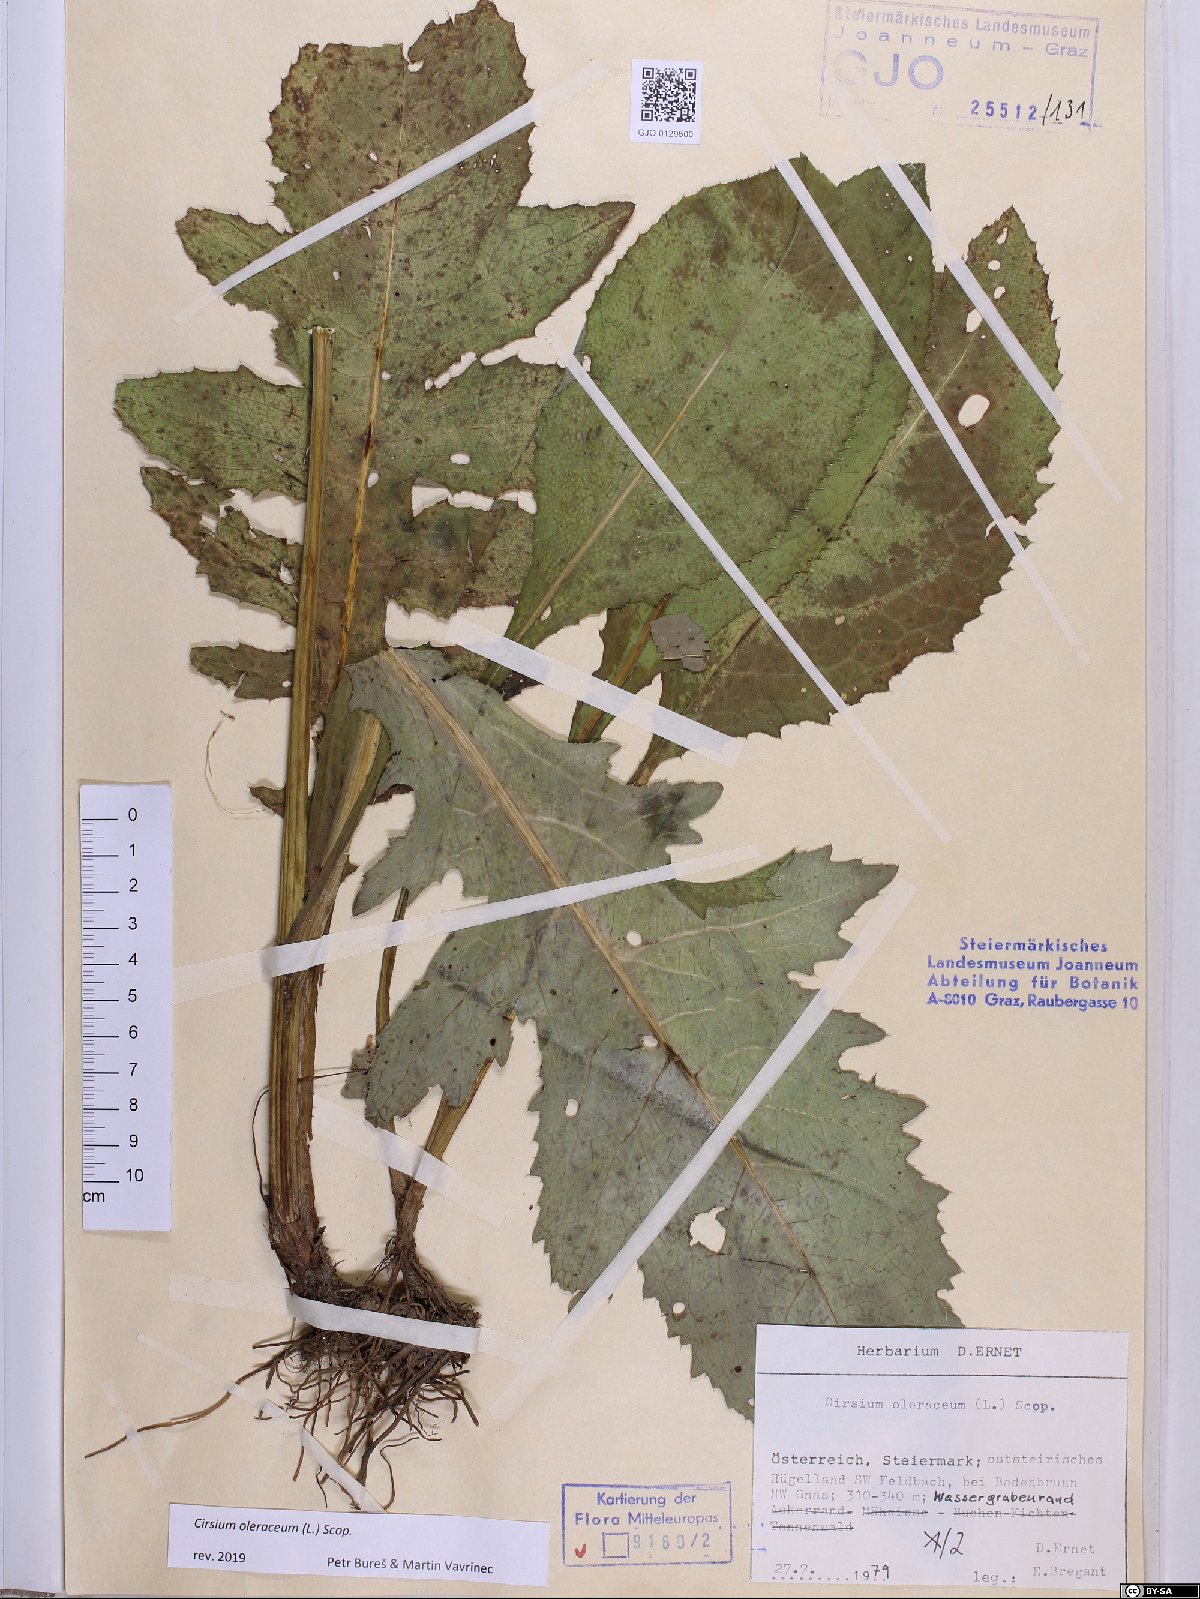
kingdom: Plantae
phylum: Tracheophyta
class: Magnoliopsida
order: Asterales
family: Asteraceae
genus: Cirsium
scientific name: Cirsium oleraceum
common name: Cabbage thistle
